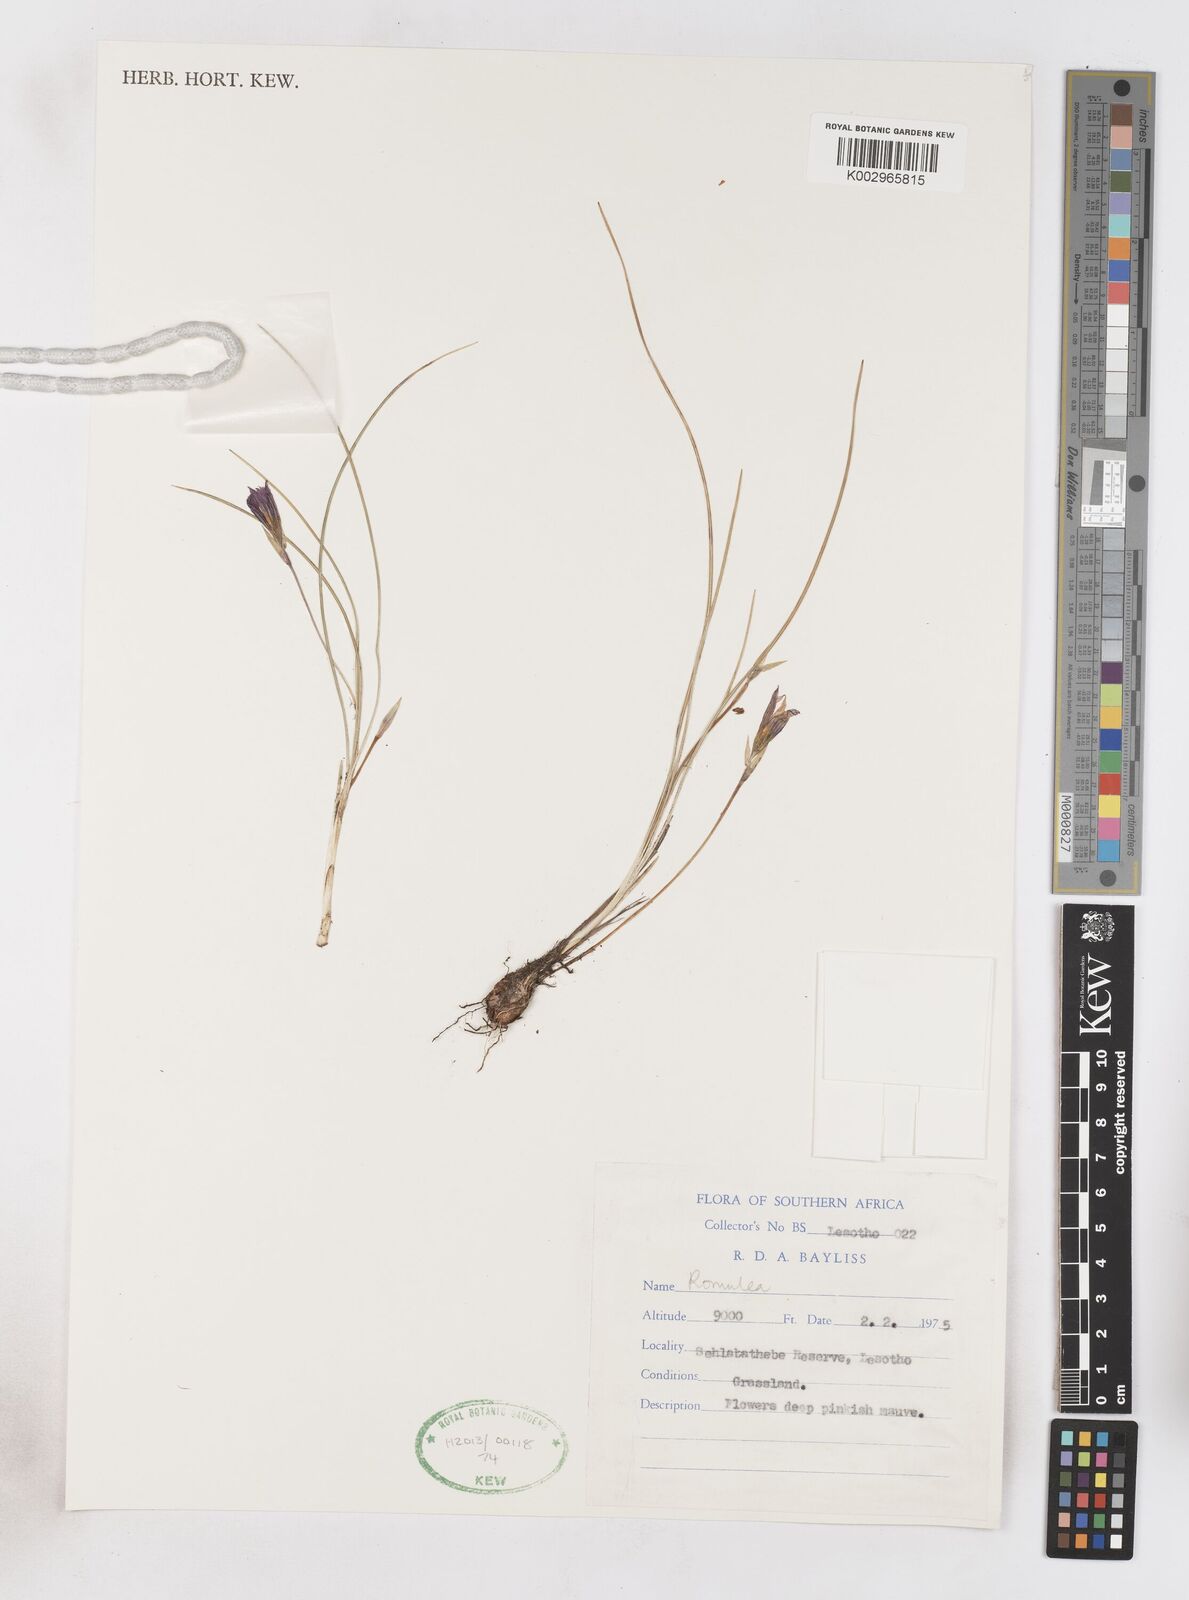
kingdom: Plantae
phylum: Tracheophyta
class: Liliopsida
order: Asparagales
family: Iridaceae
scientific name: Iridaceae
